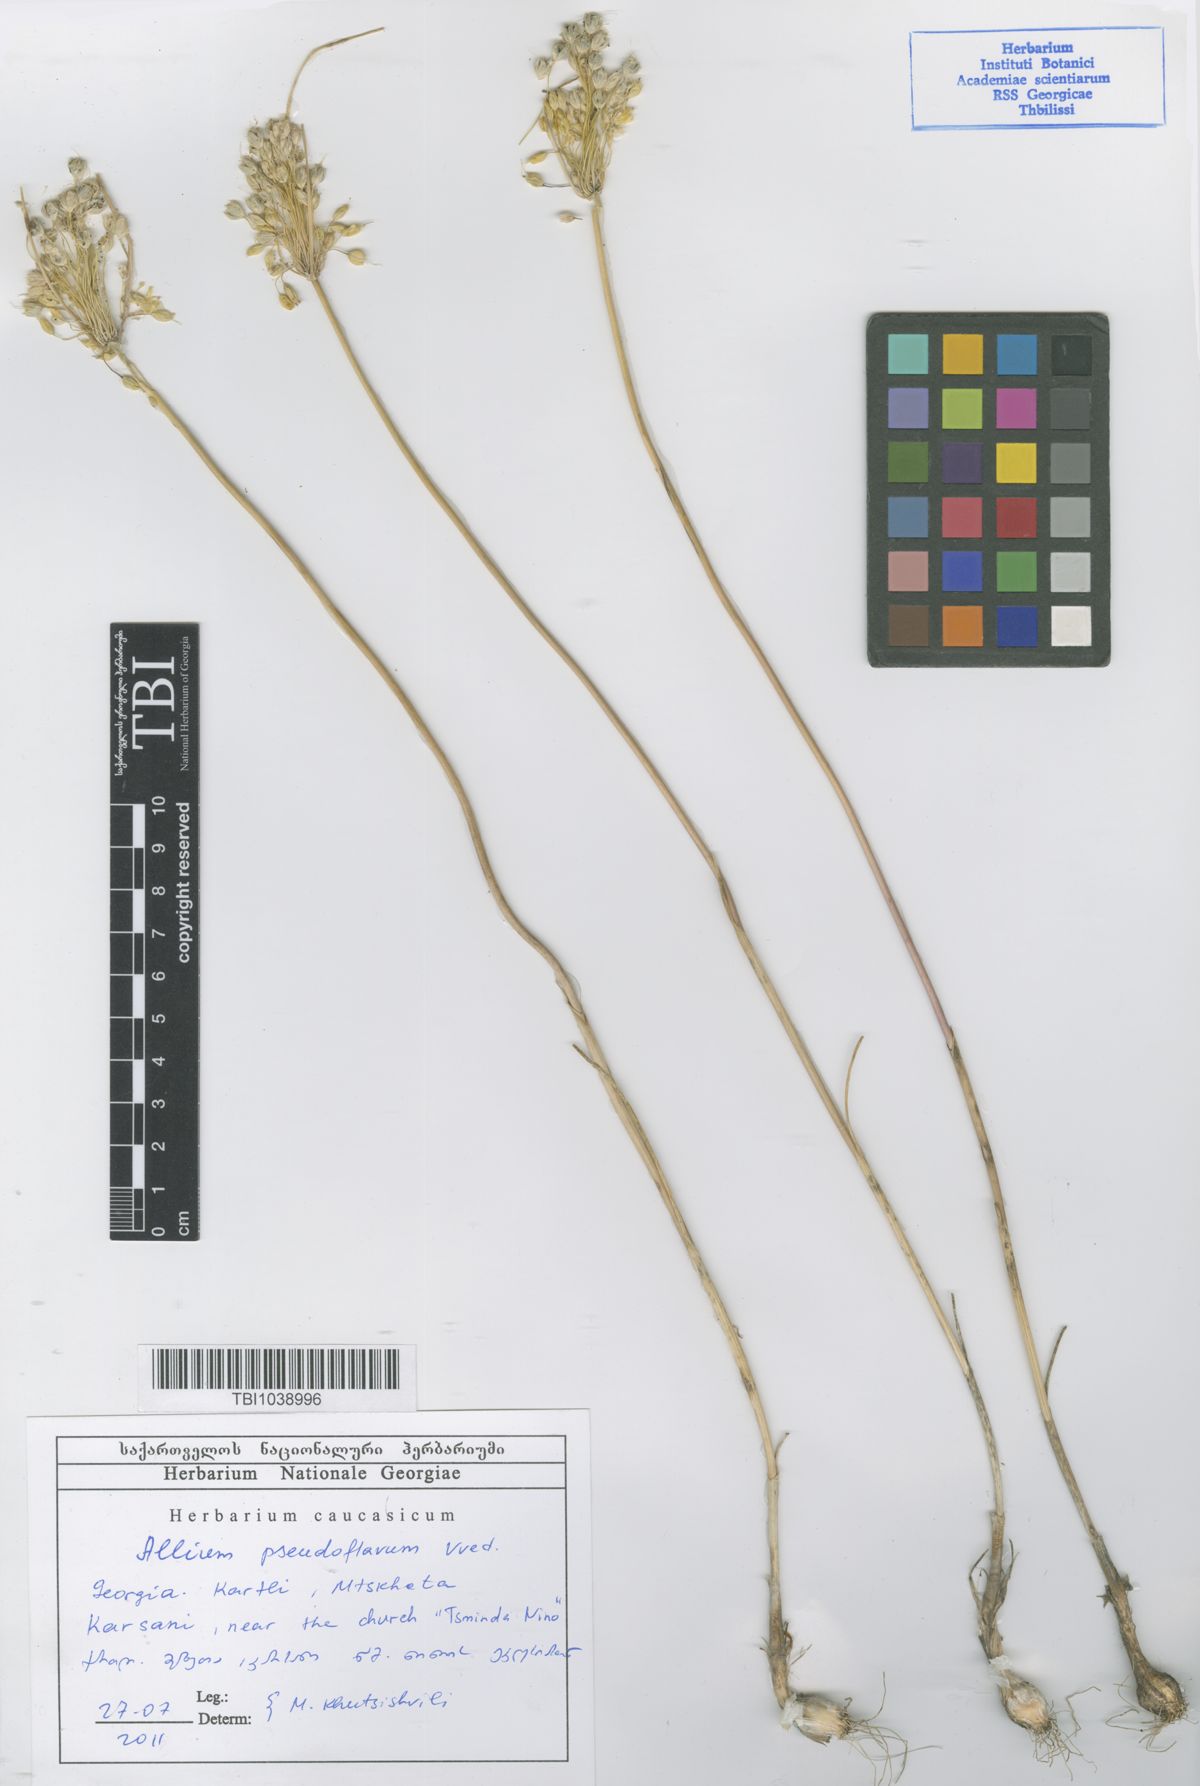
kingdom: Plantae
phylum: Tracheophyta
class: Liliopsida
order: Asparagales
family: Amaryllidaceae
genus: Allium
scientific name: Allium pseudoflavum
